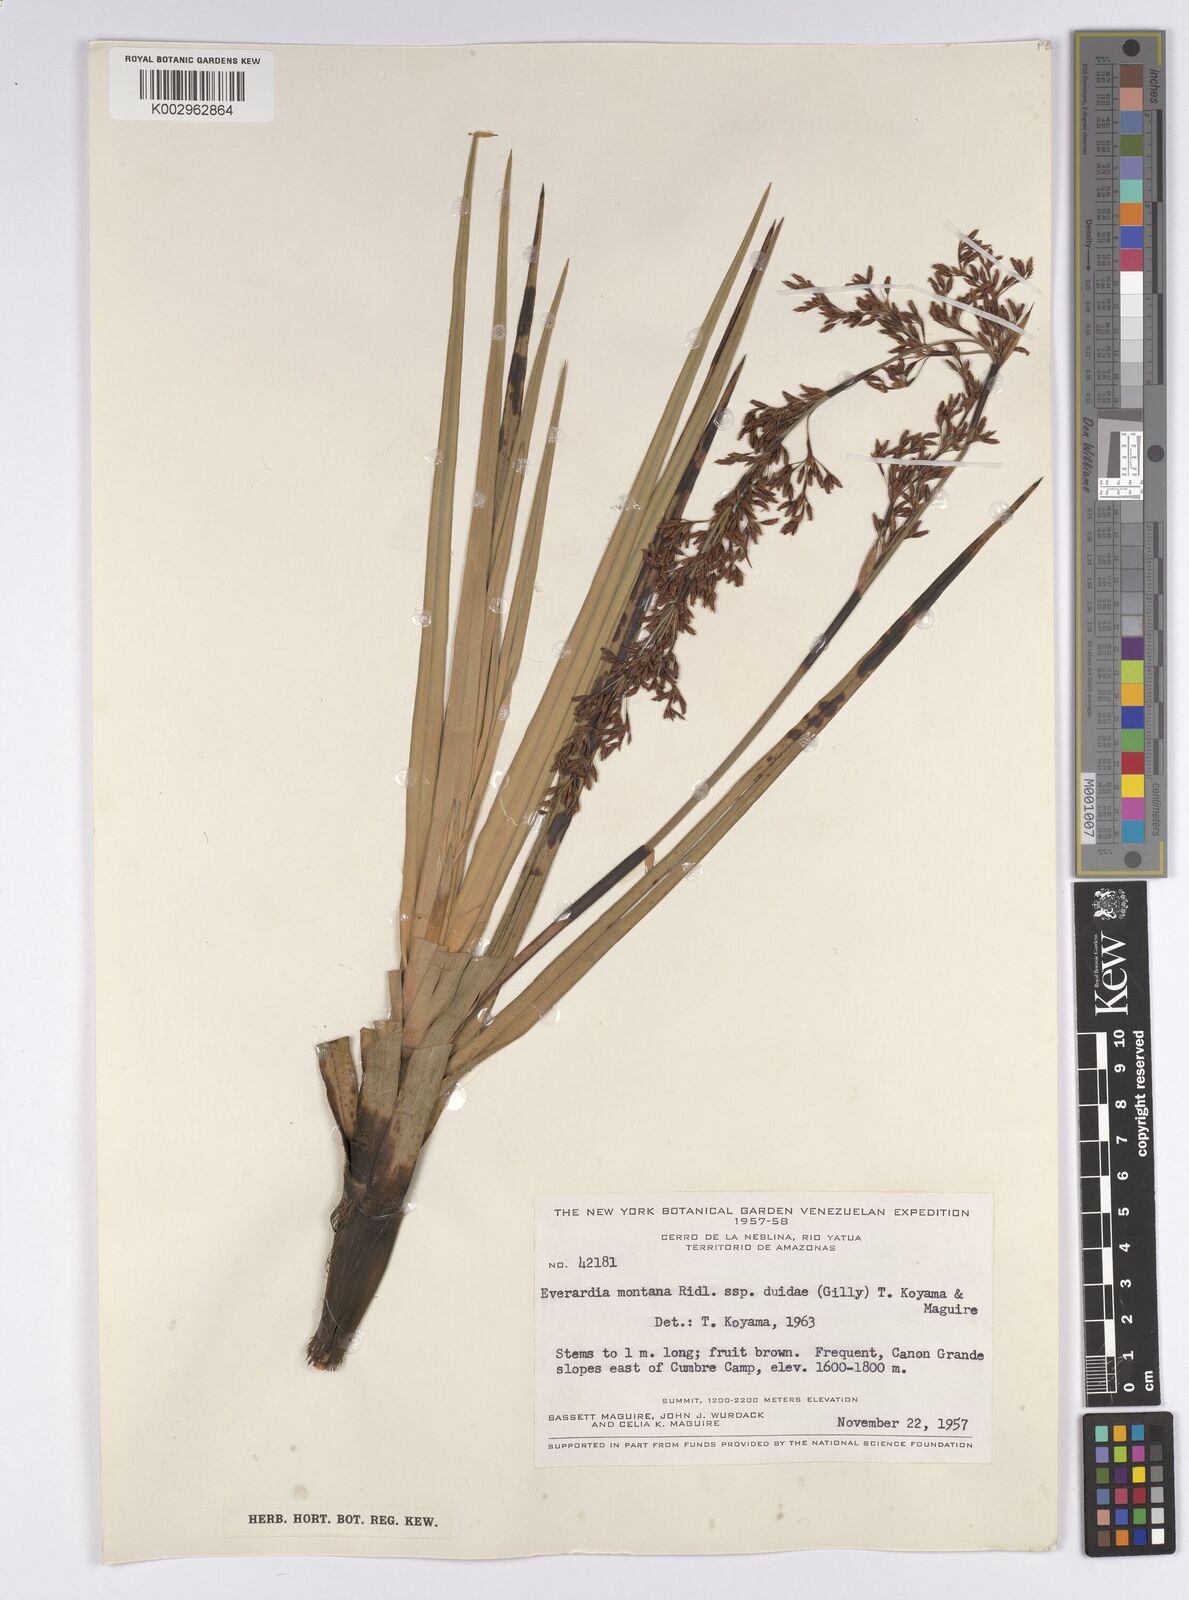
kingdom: Plantae
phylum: Tracheophyta
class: Liliopsida
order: Poales
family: Cyperaceae
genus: Cephalocarpus
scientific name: Cephalocarpus duidae
